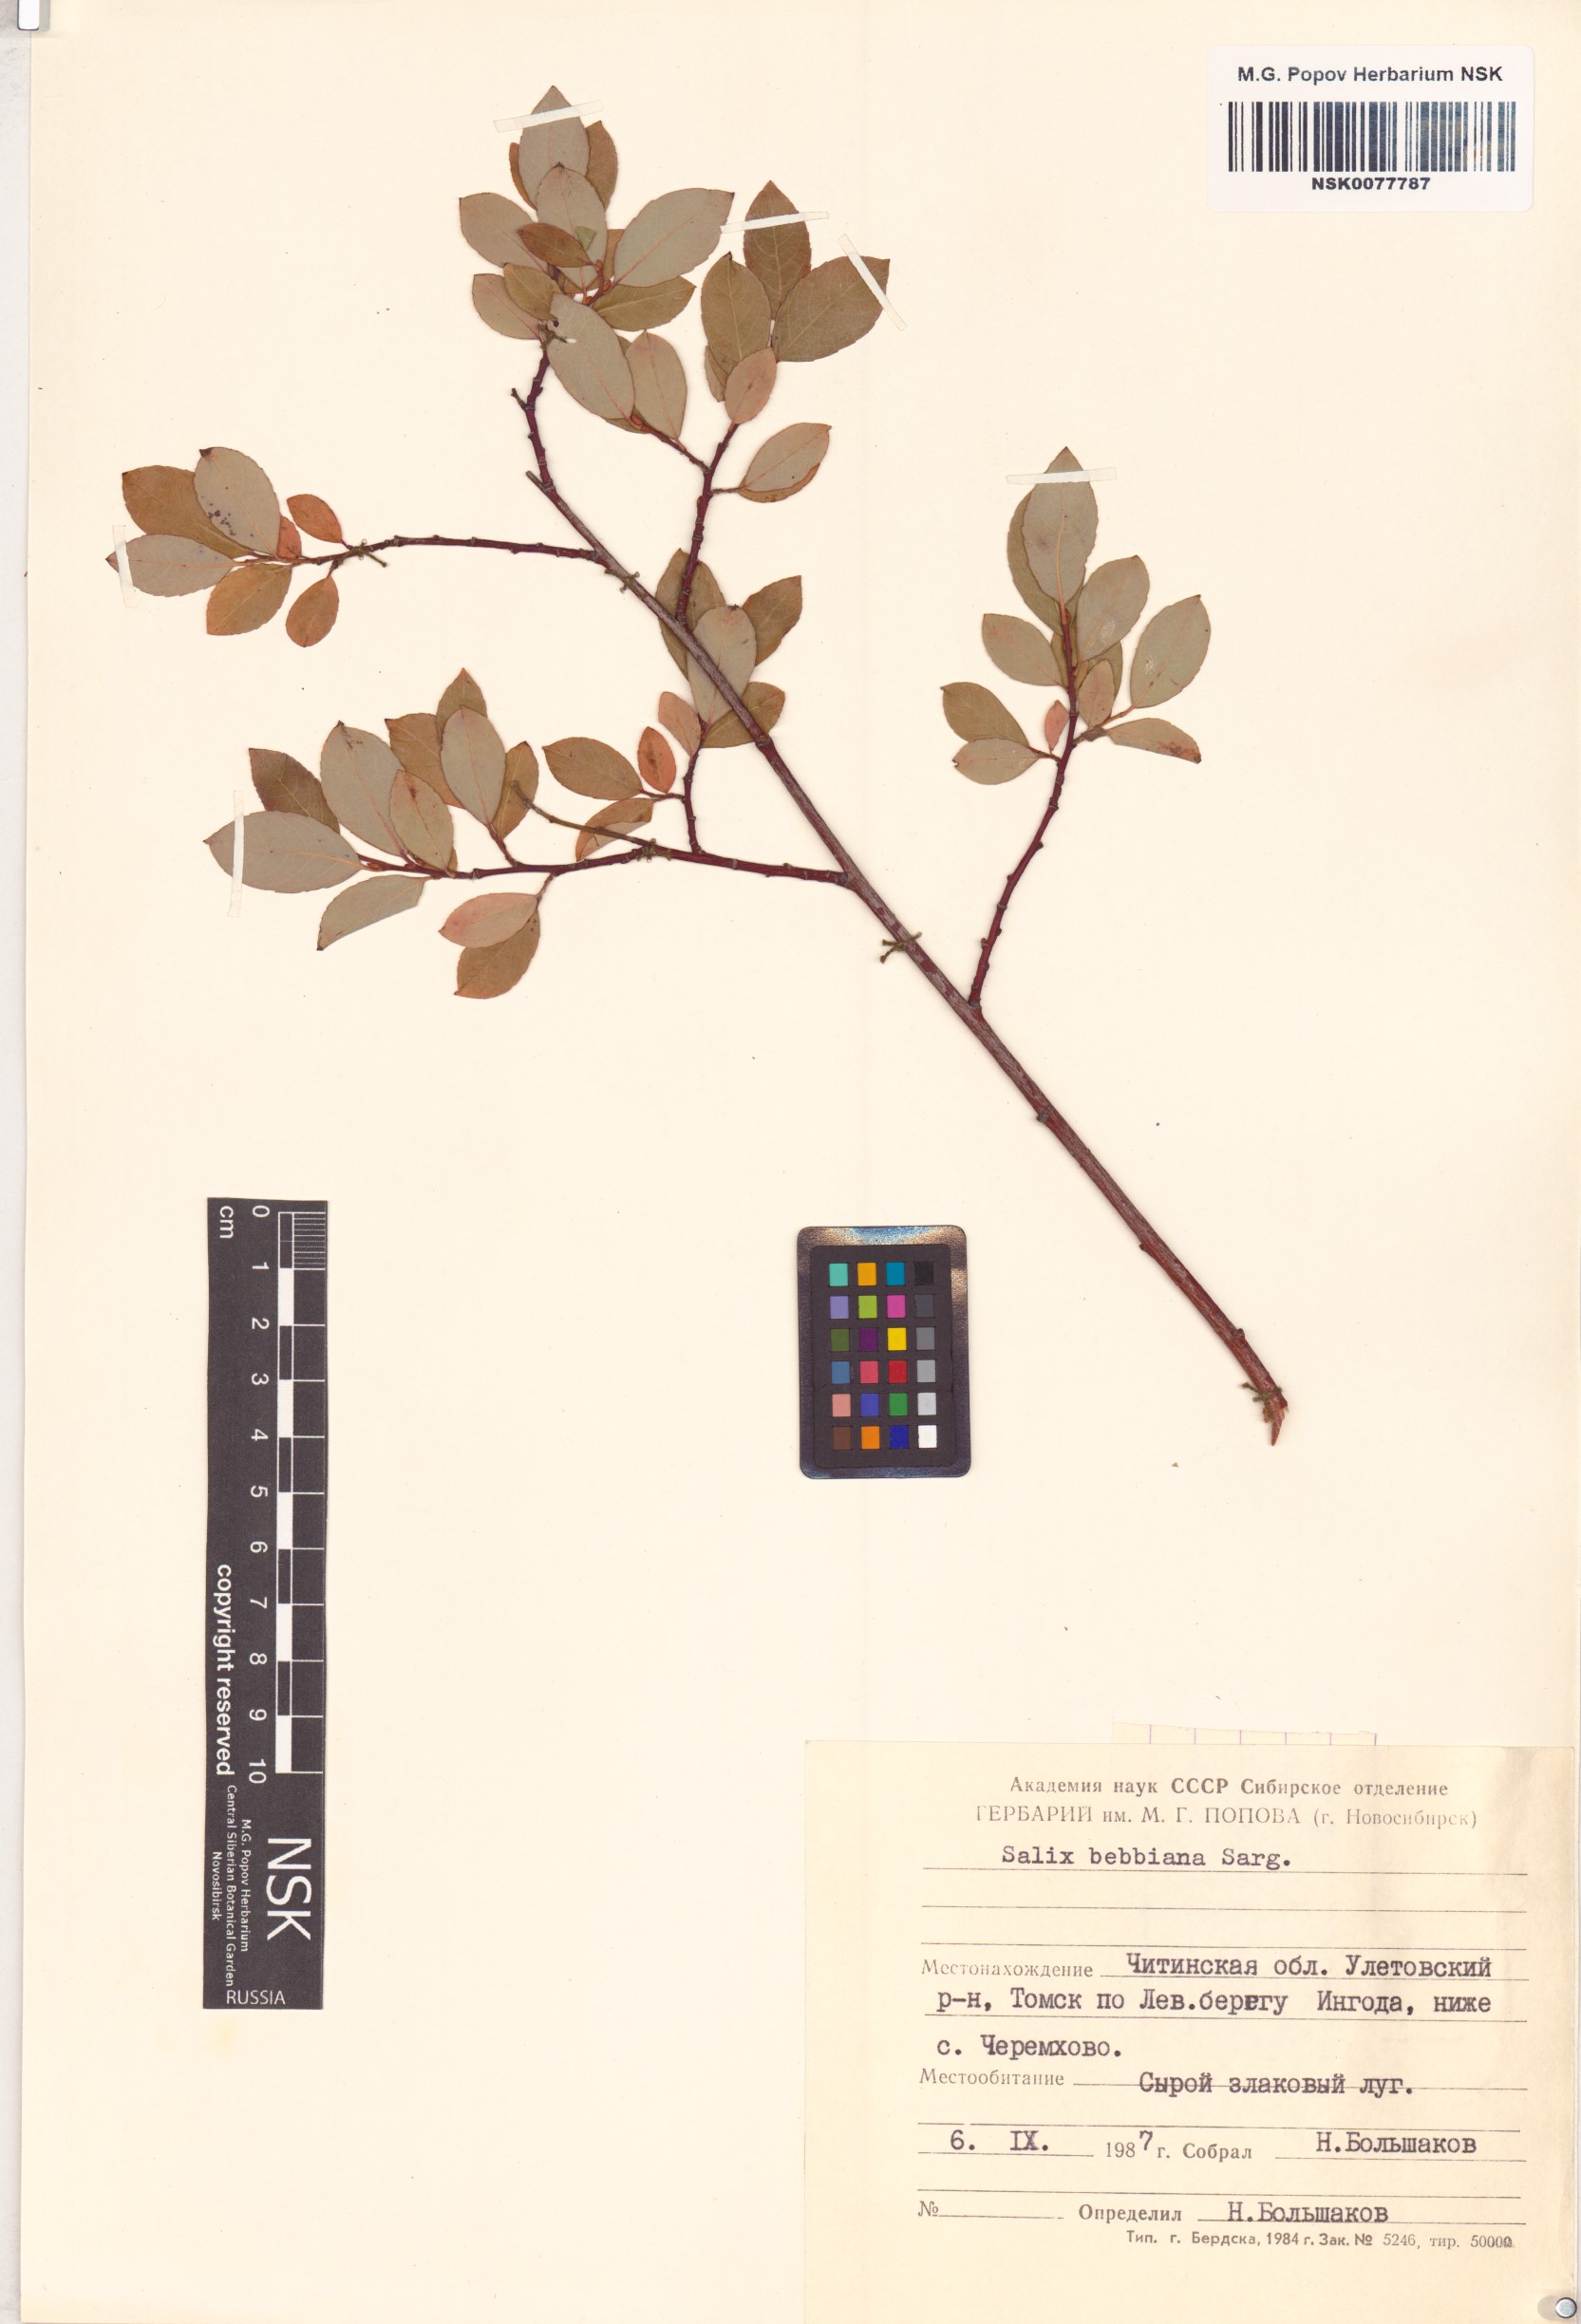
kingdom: Plantae
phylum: Tracheophyta
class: Magnoliopsida
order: Malpighiales
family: Salicaceae
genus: Salix
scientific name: Salix bebbiana
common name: Bebb's willow
